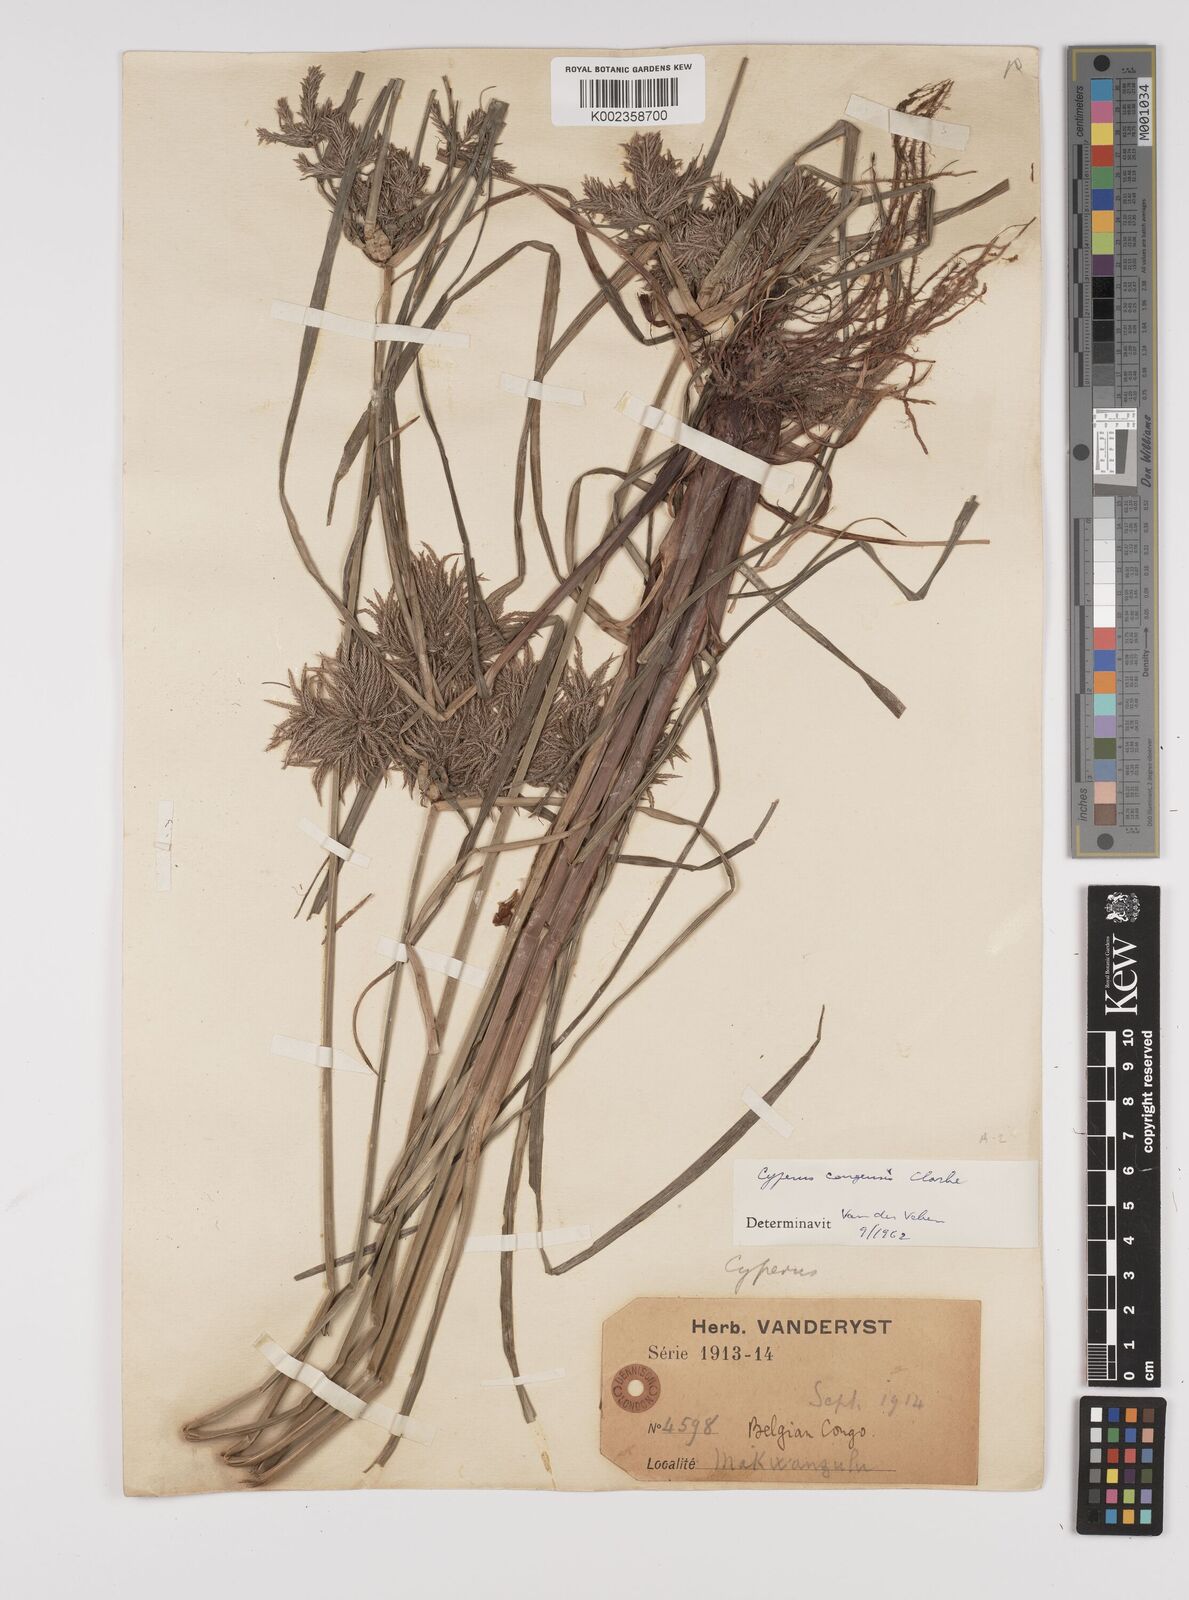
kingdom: Plantae
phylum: Tracheophyta
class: Liliopsida
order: Poales
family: Cyperaceae
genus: Cyperus
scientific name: Cyperus congensis
